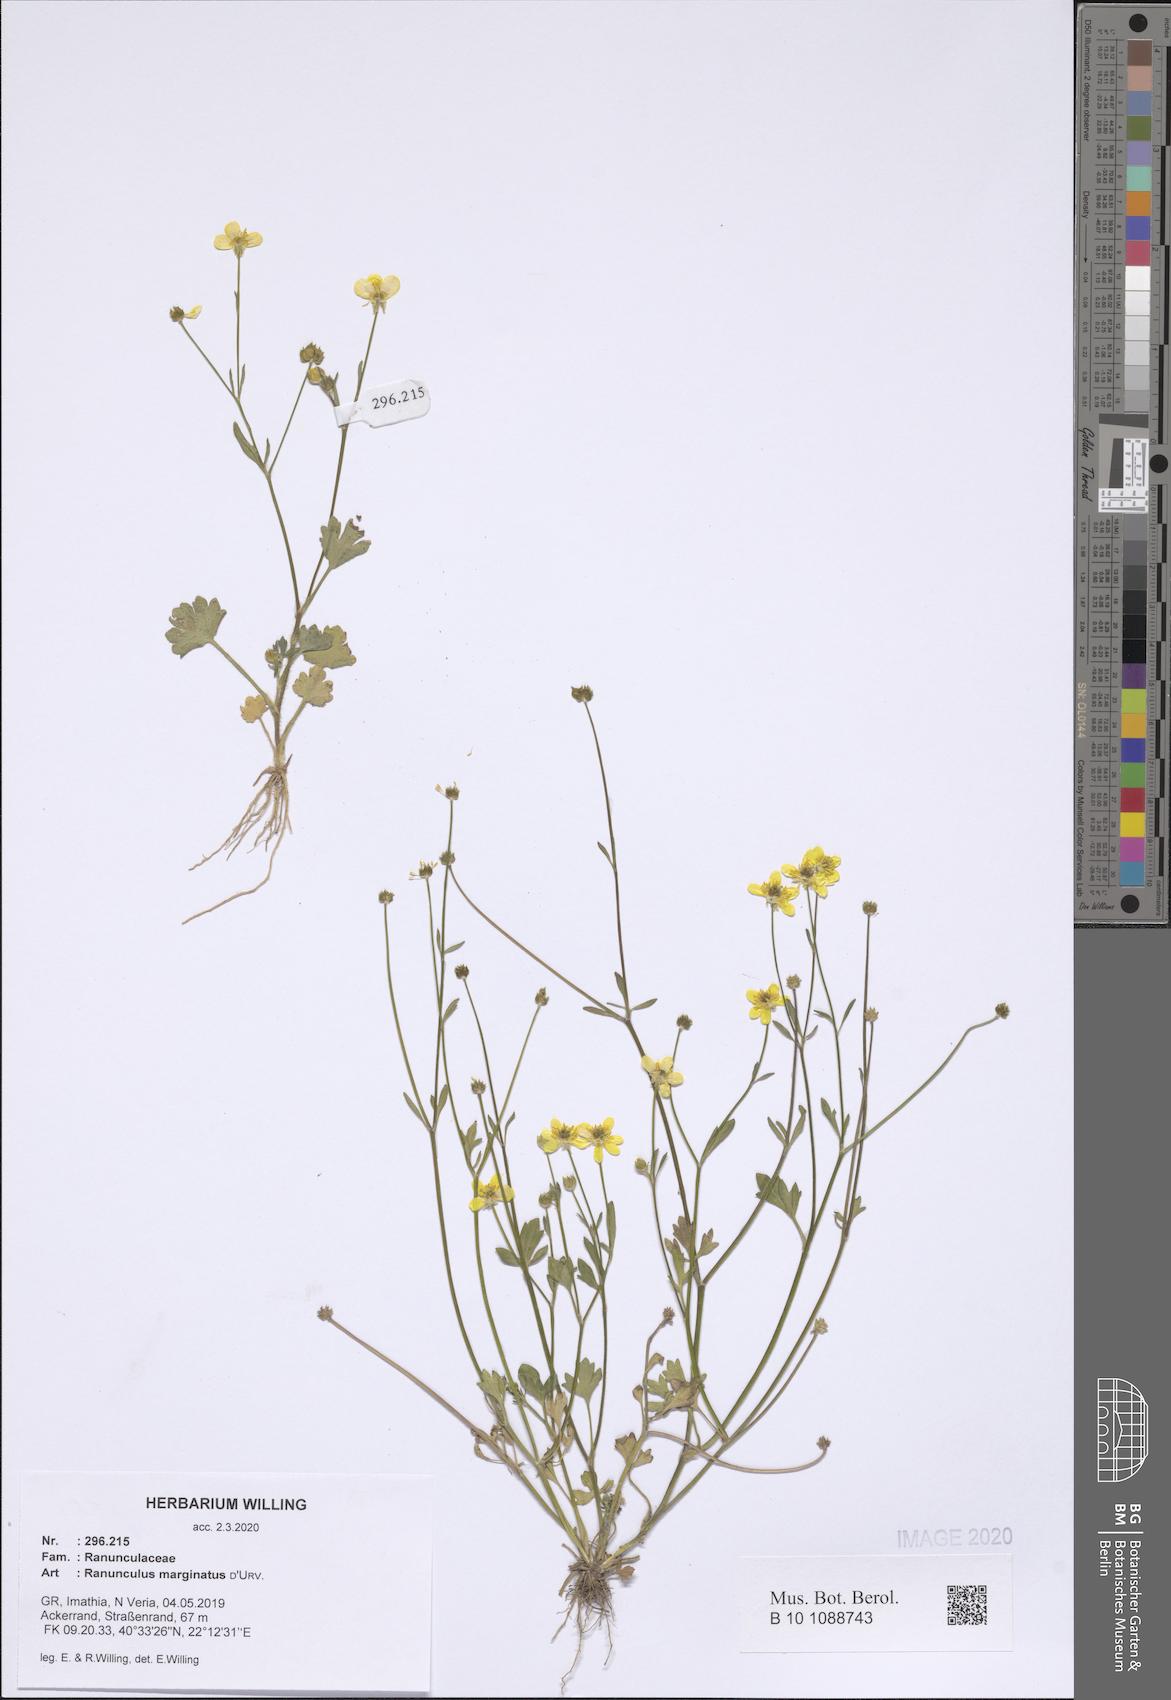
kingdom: Plantae
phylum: Tracheophyta
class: Magnoliopsida
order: Ranunculales
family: Ranunculaceae
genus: Ranunculus
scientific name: Ranunculus marginatus
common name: St. martin's buttercup
